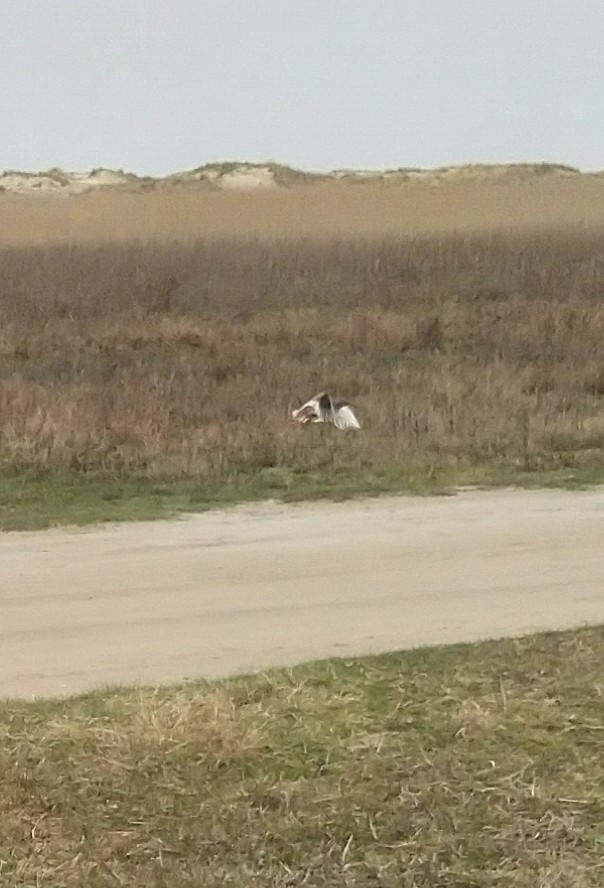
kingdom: Animalia
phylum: Chordata
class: Aves
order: Charadriiformes
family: Scolopacidae
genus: Tringa
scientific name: Tringa totanus
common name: Rødben
